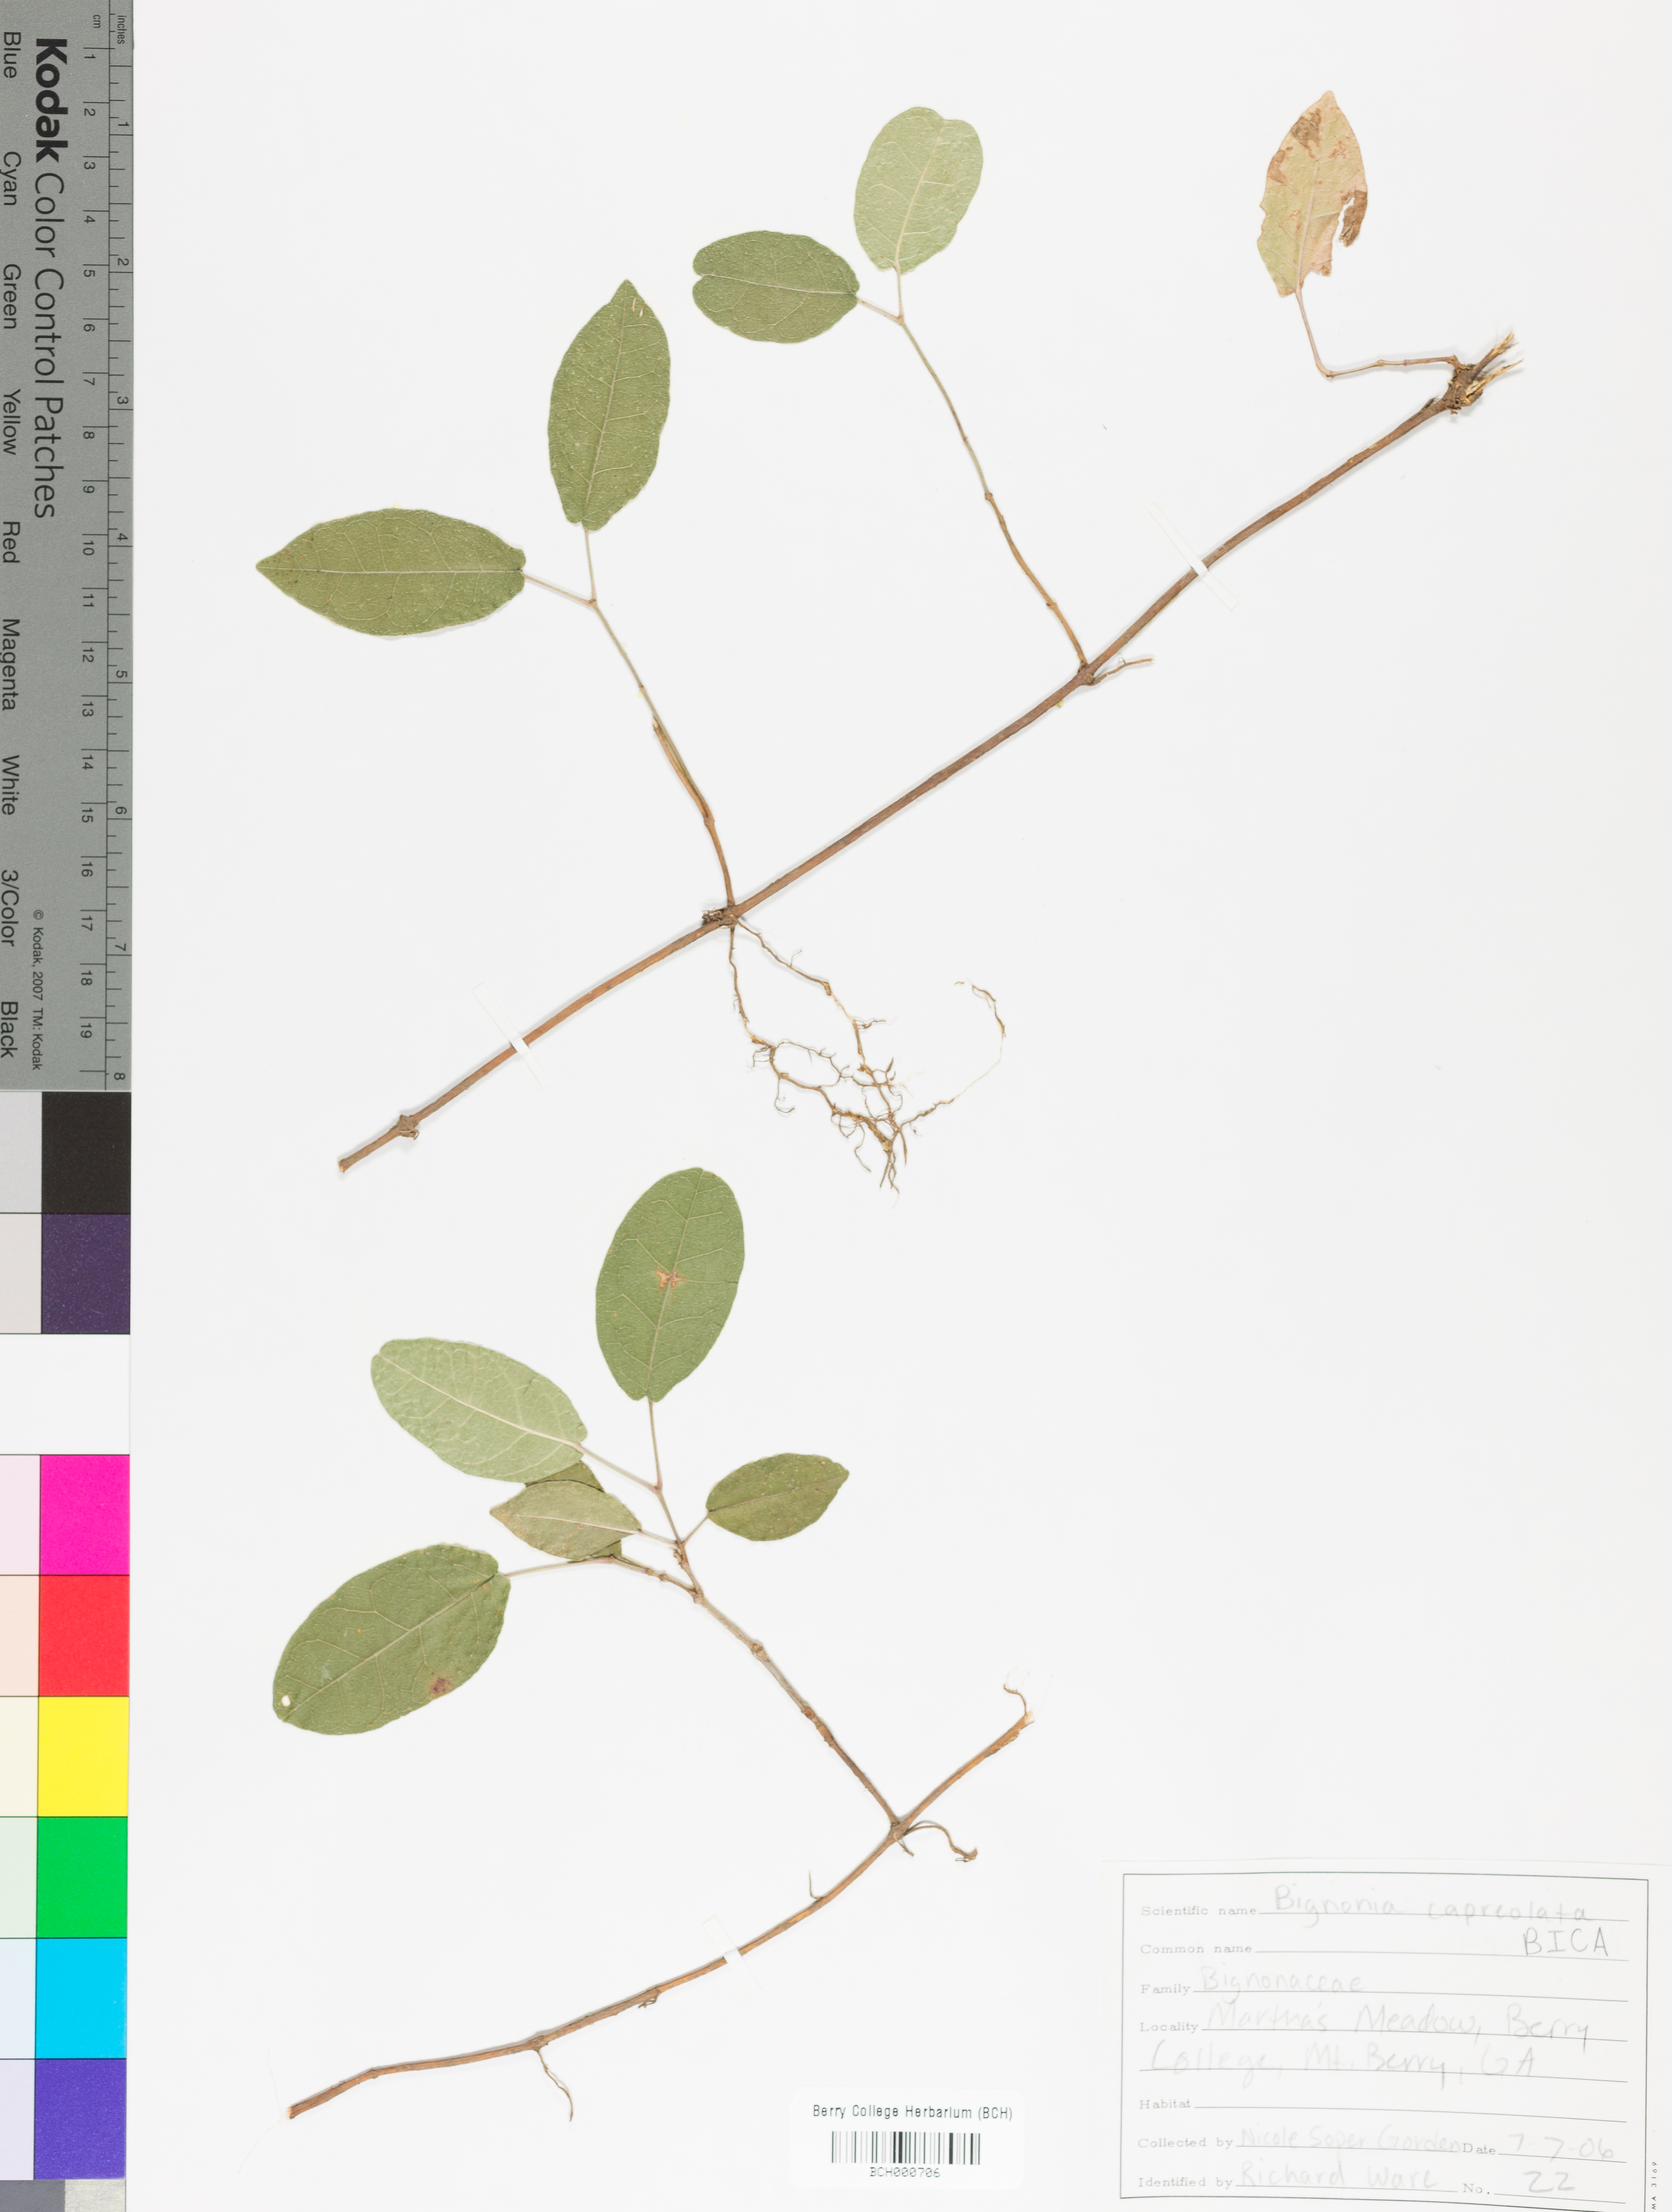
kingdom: Plantae
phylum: Tracheophyta
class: Magnoliopsida
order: Lamiales
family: Bignoniaceae
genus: Bignonia
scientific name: Bignonia capreolata
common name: Crossvine
